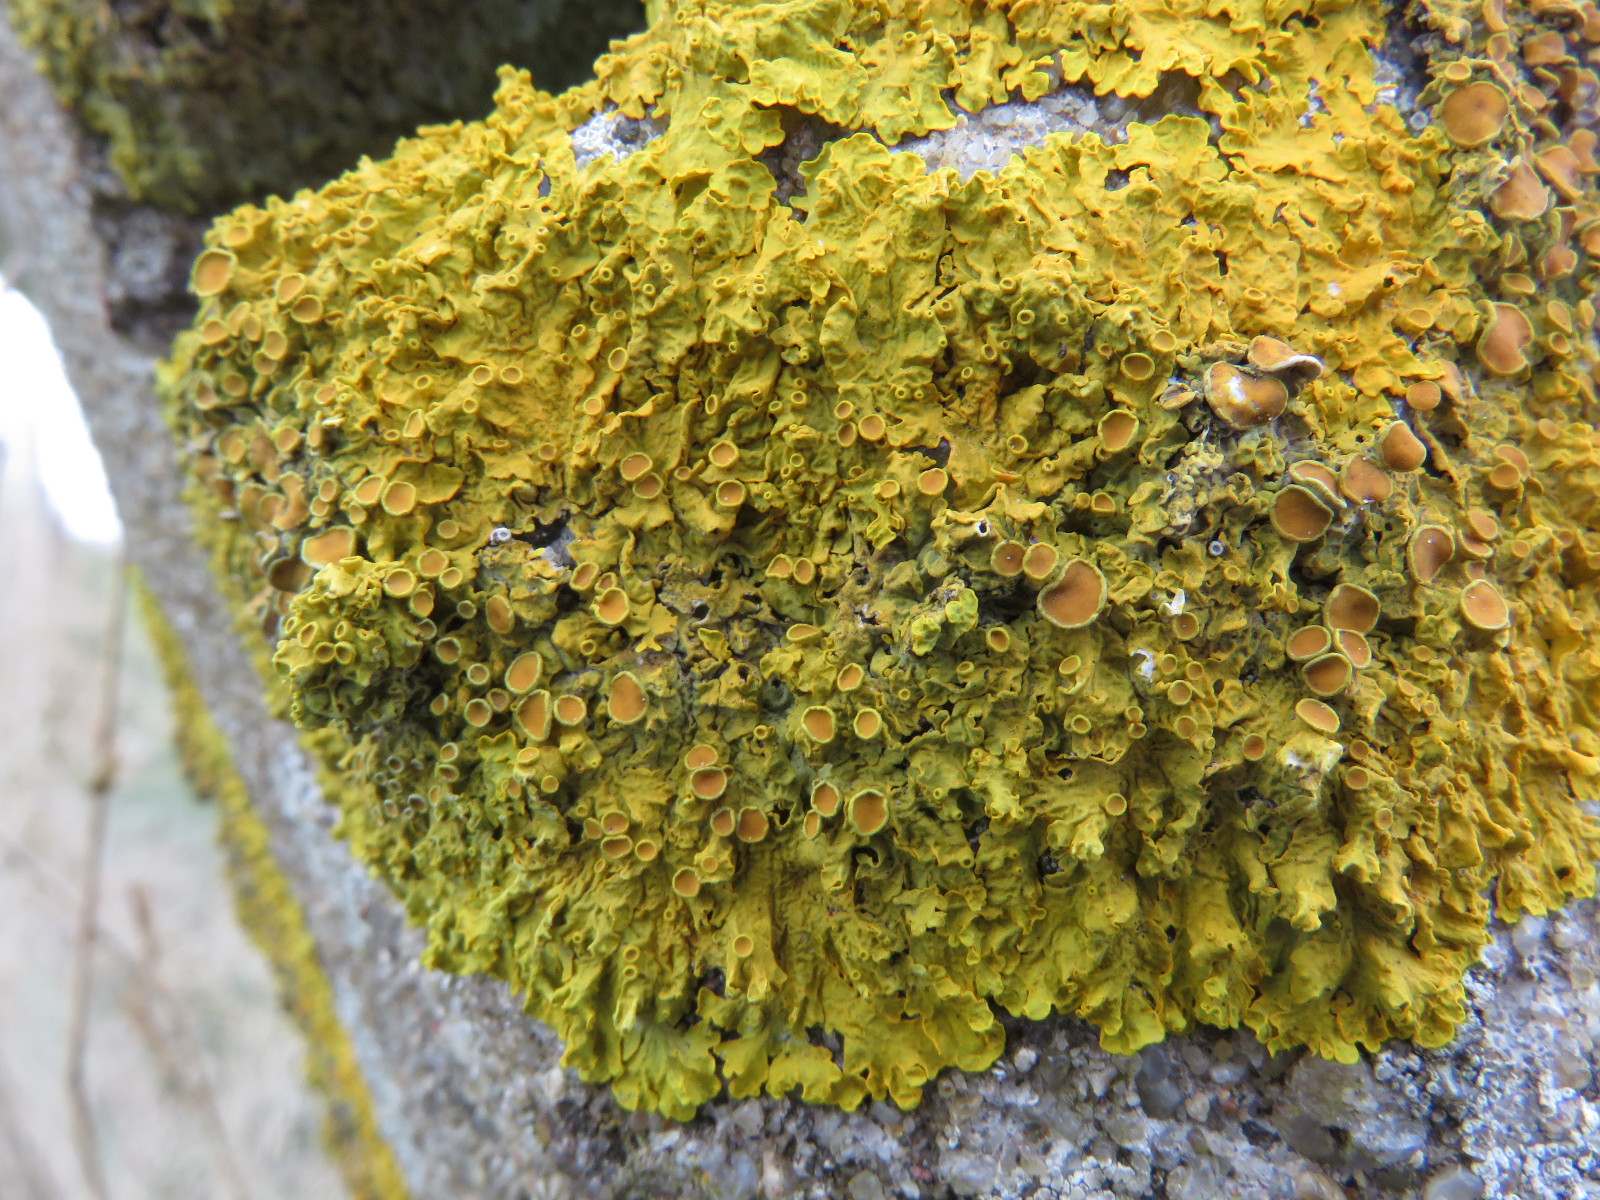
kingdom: Fungi
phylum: Ascomycota
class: Lecanoromycetes
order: Teloschistales
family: Teloschistaceae
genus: Xanthoria
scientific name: Xanthoria parietina
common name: almindelig væggelav
